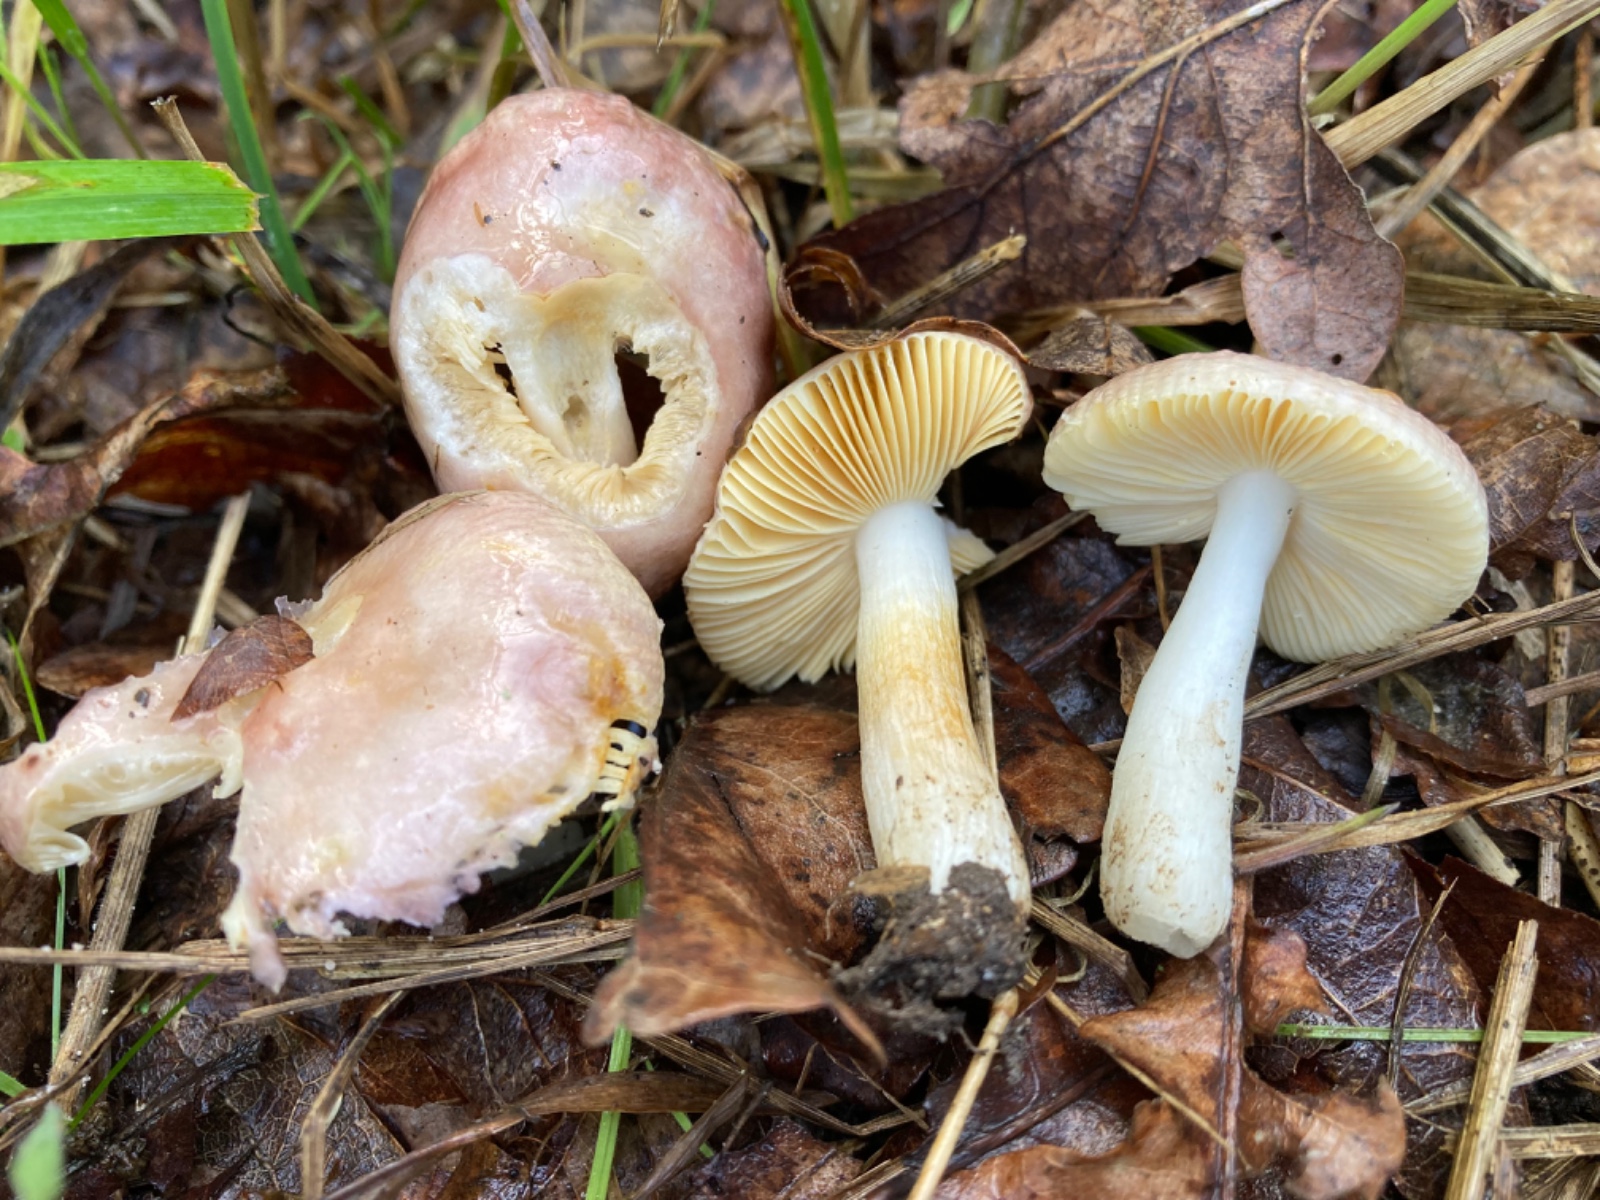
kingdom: Fungi
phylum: Basidiomycota
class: Agaricomycetes
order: Russulales
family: Russulaceae
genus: Russula
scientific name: Russula odorata
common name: duft-skørhat
